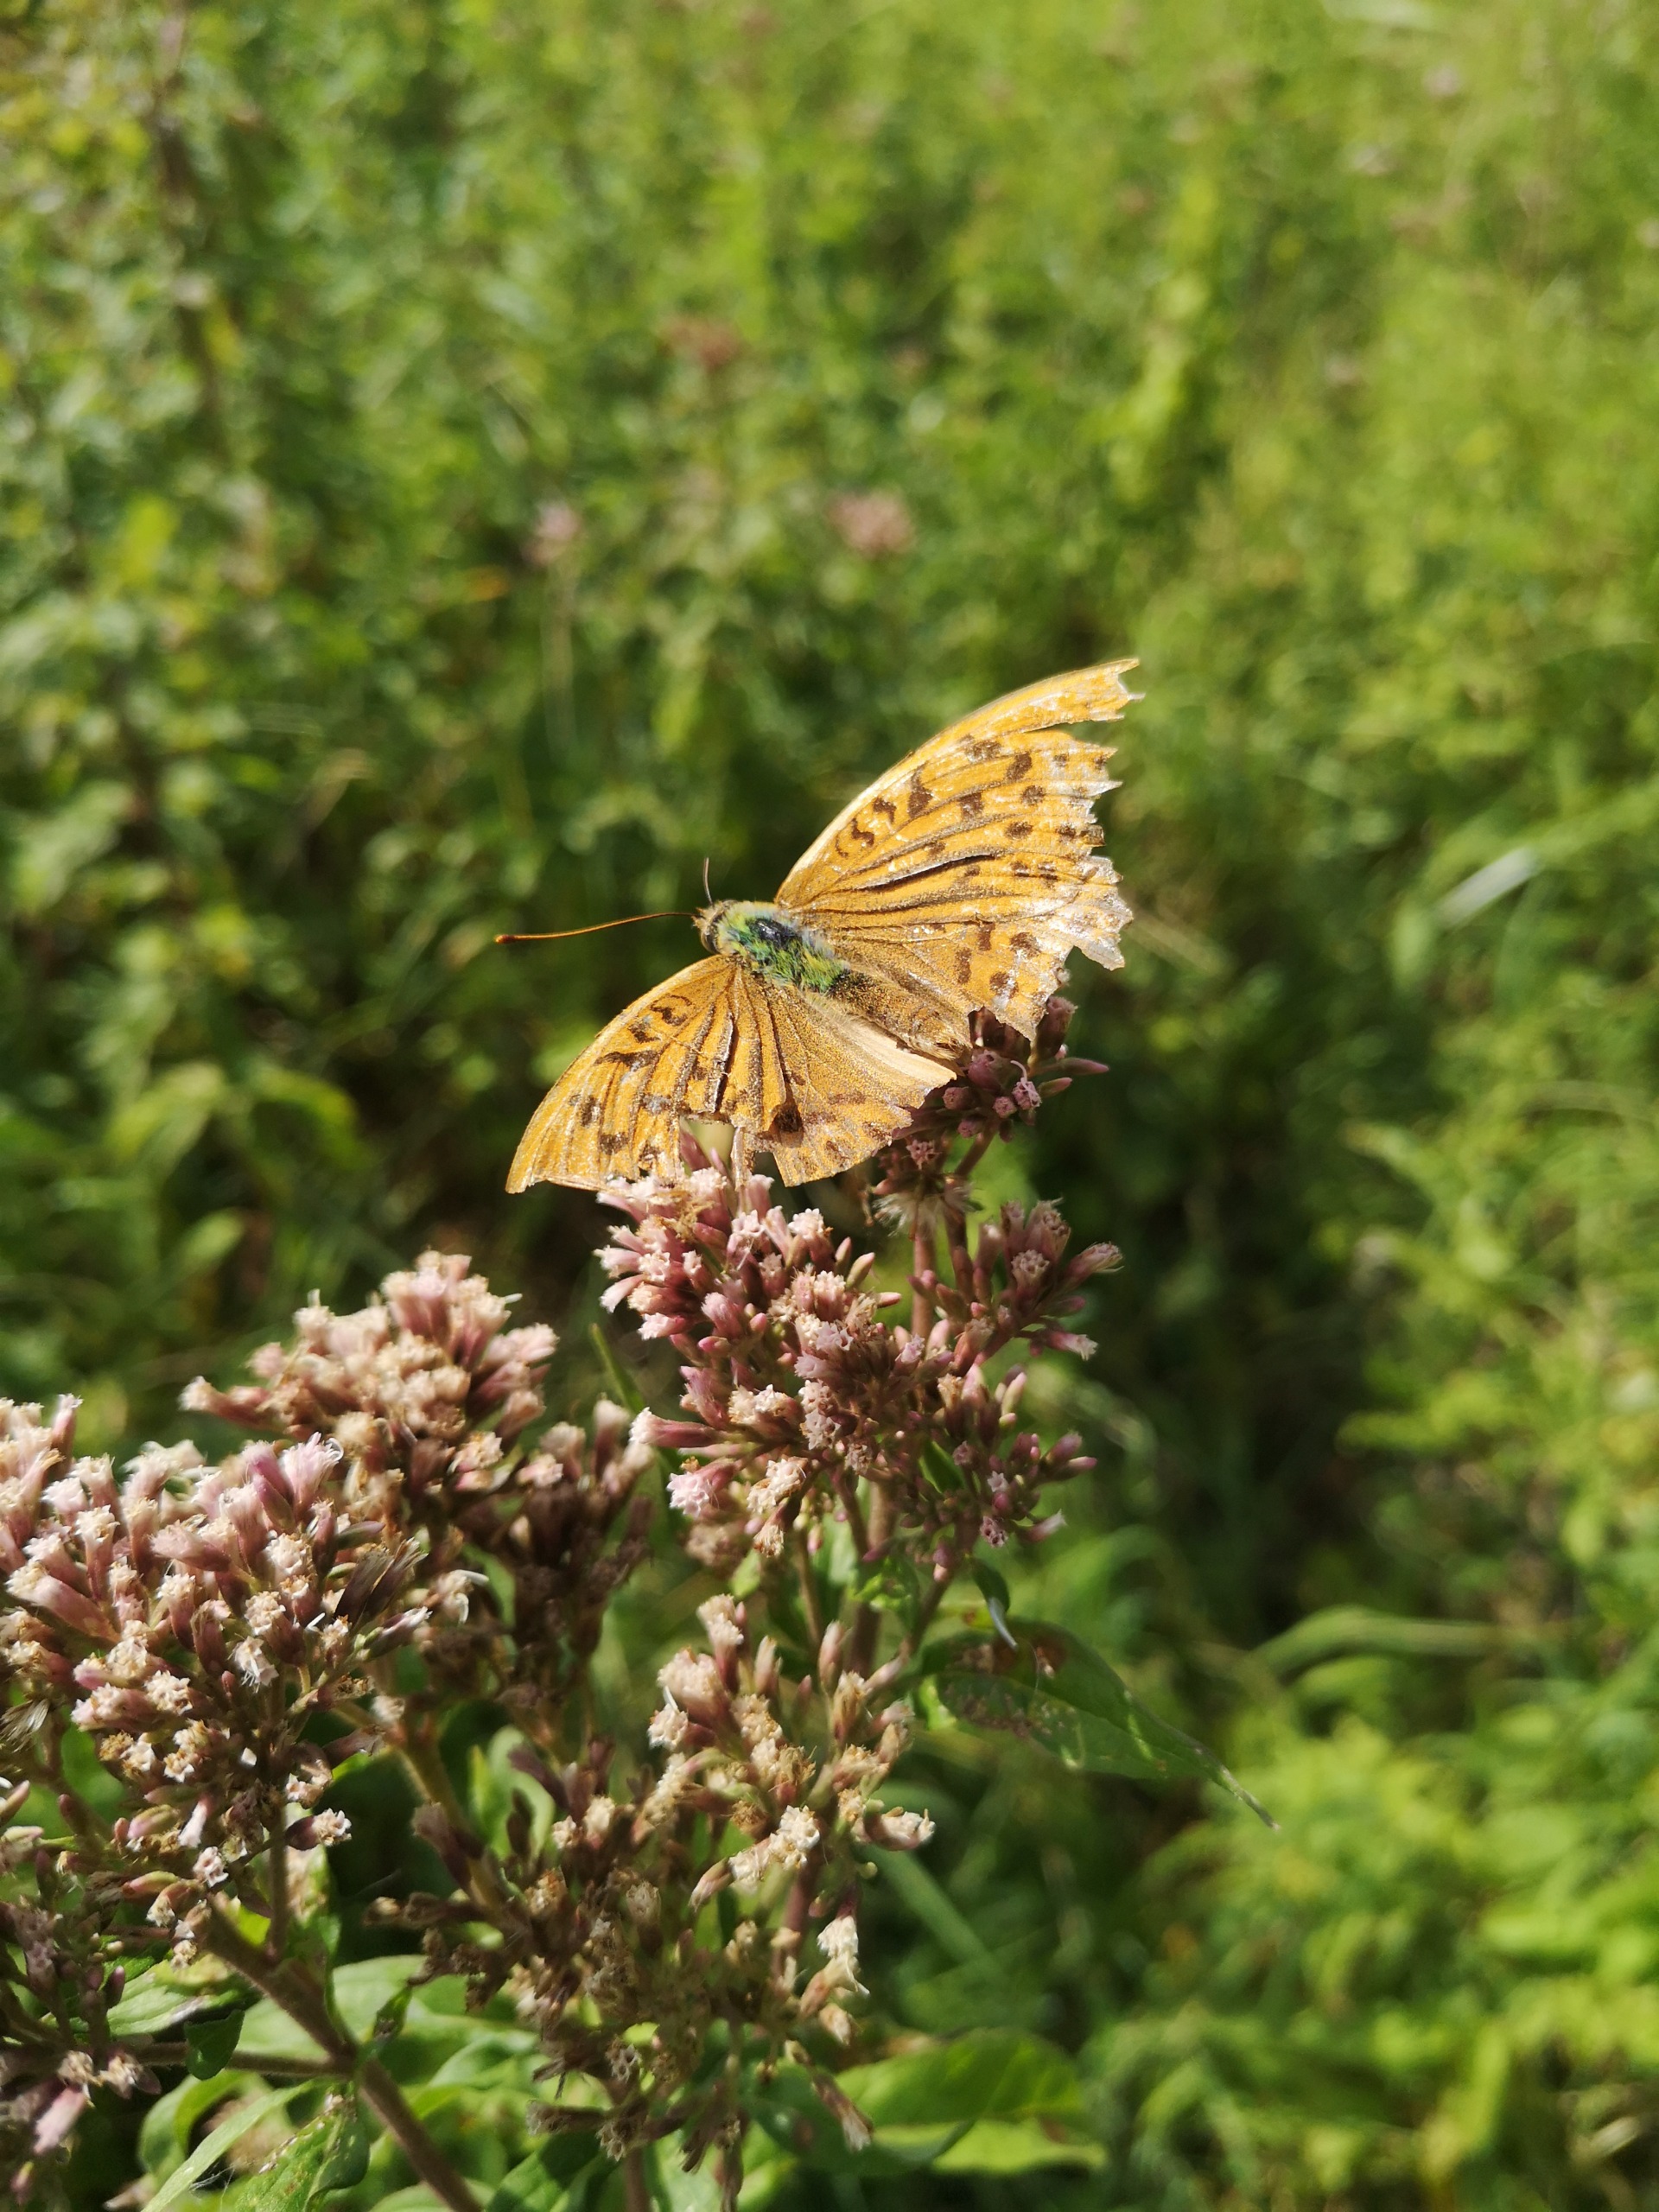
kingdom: Animalia
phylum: Arthropoda
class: Insecta
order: Lepidoptera
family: Nymphalidae
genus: Argynnis
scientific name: Argynnis paphia
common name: Kejserkåbe
